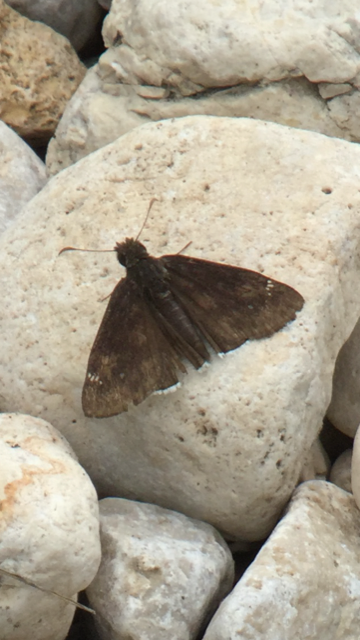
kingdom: Animalia
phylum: Arthropoda
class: Insecta
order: Lepidoptera
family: Hesperiidae
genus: Thorybes
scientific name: Thorybes
